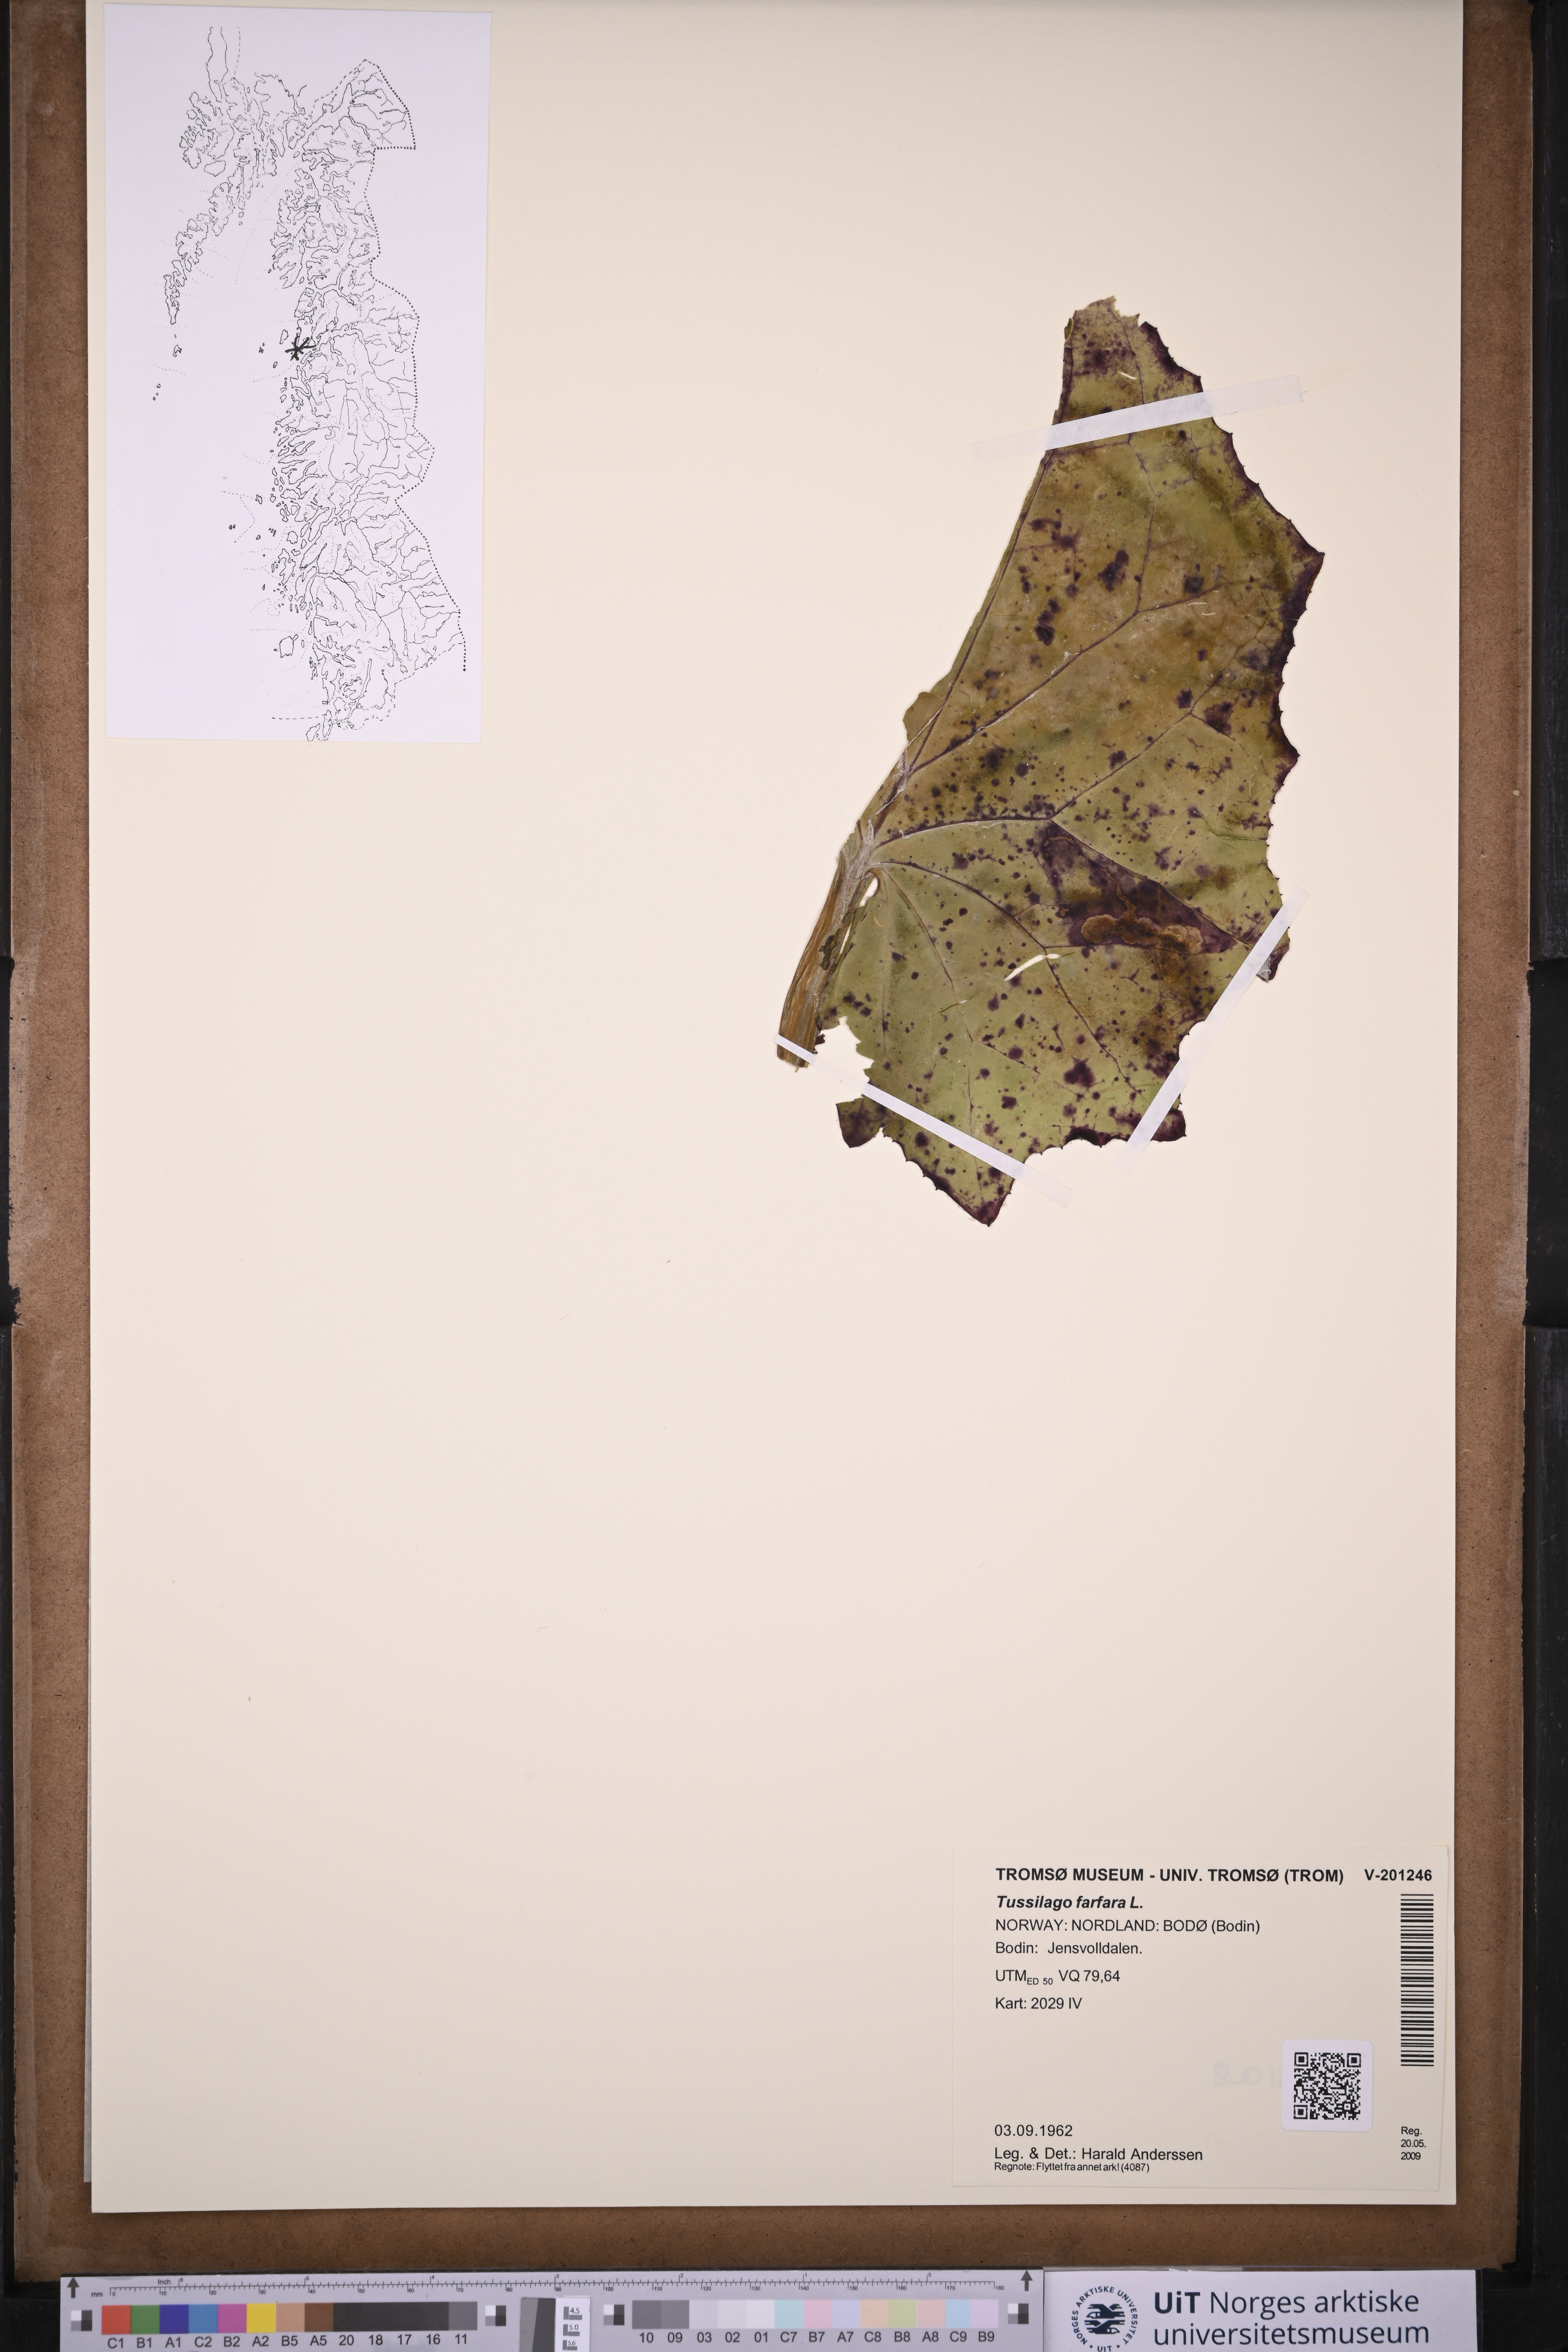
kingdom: Plantae
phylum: Tracheophyta
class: Magnoliopsida
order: Asterales
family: Asteraceae
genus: Tussilago
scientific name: Tussilago farfara
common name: Coltsfoot
